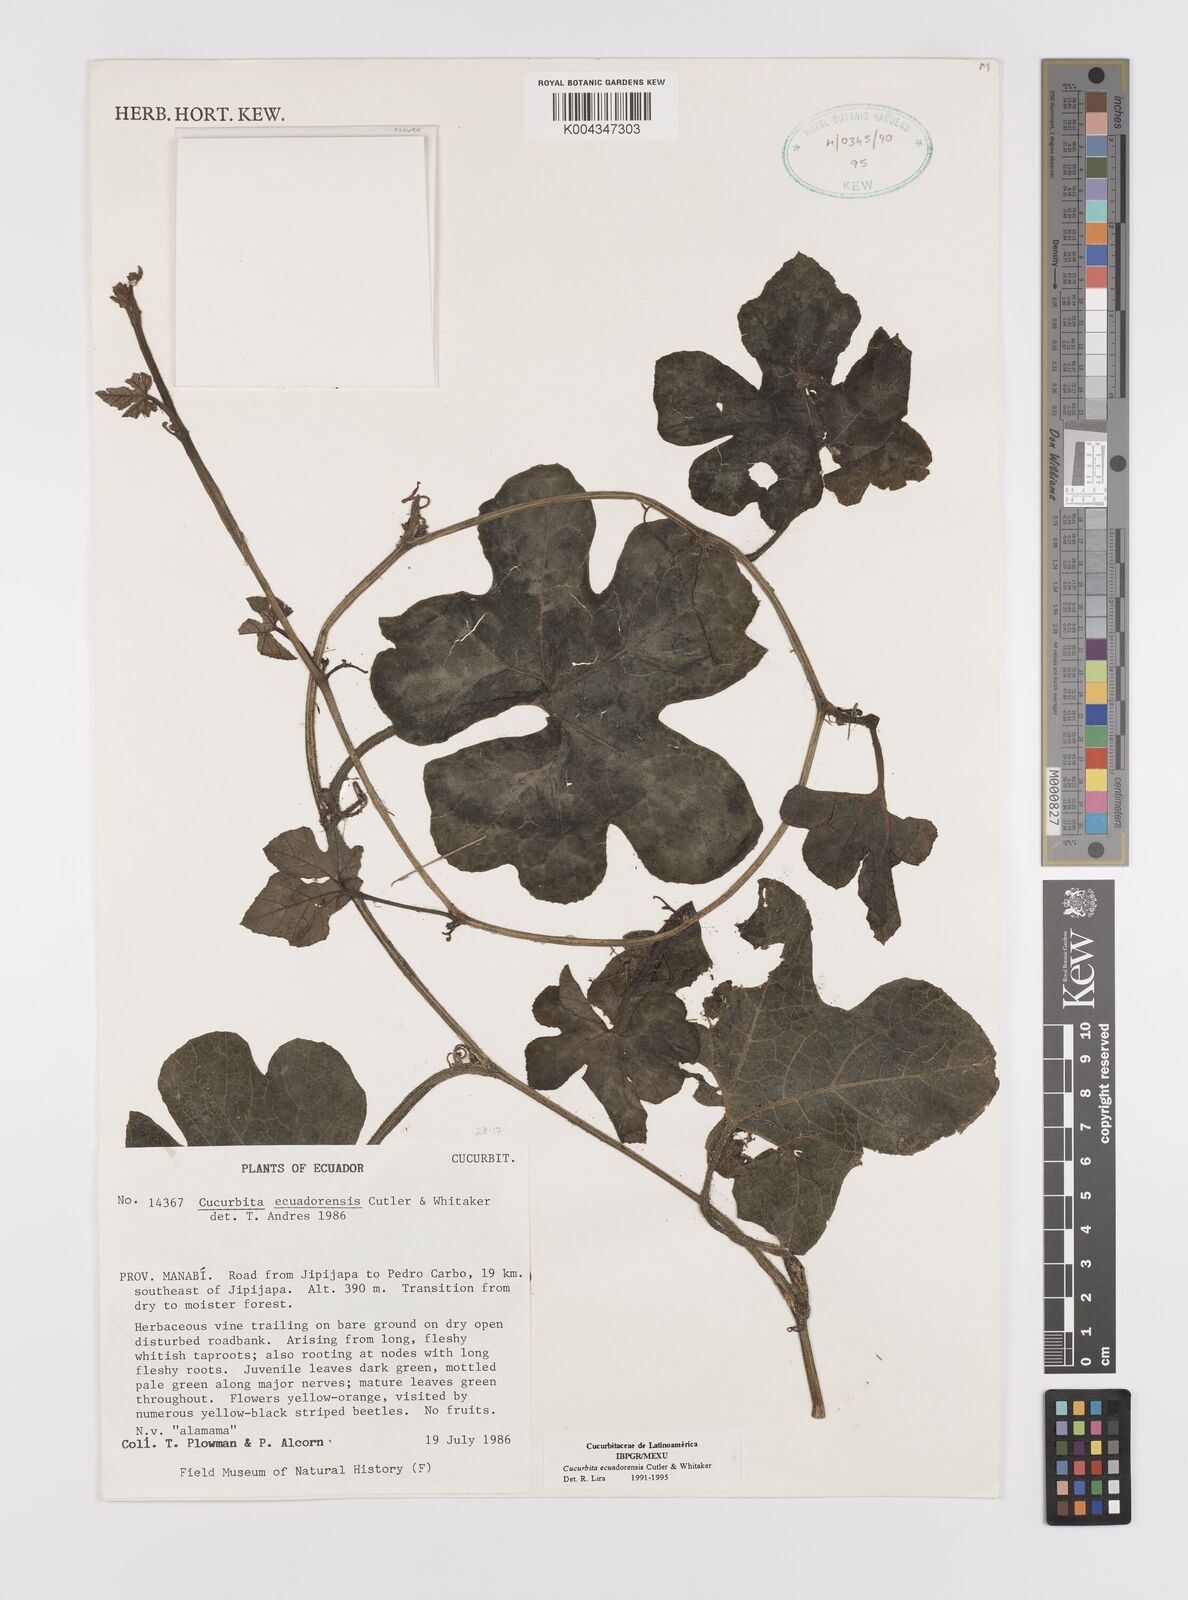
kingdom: Plantae
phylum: Tracheophyta
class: Magnoliopsida
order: Cucurbitales
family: Cucurbitaceae
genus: Cucurbita
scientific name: Cucurbita ecuadorensis
